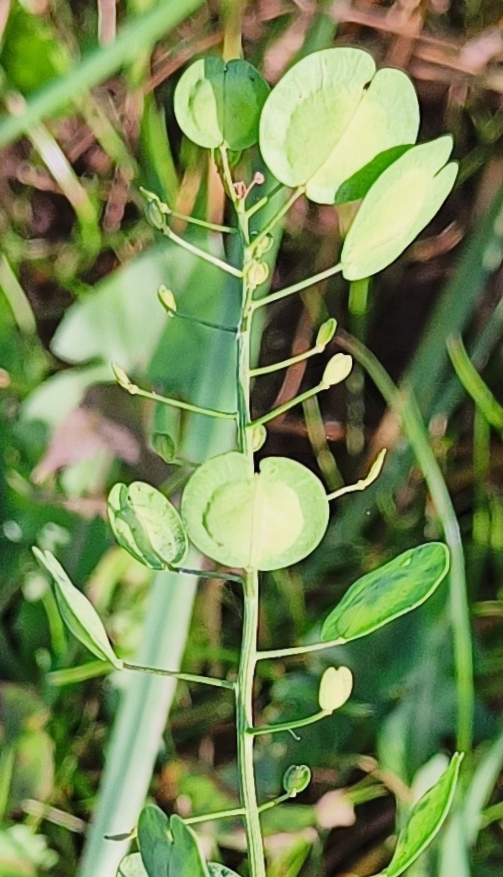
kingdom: Plantae
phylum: Tracheophyta
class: Magnoliopsida
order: Brassicales
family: Brassicaceae
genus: Thlaspi
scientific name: Thlaspi arvense
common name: Almindelig pengeurt
